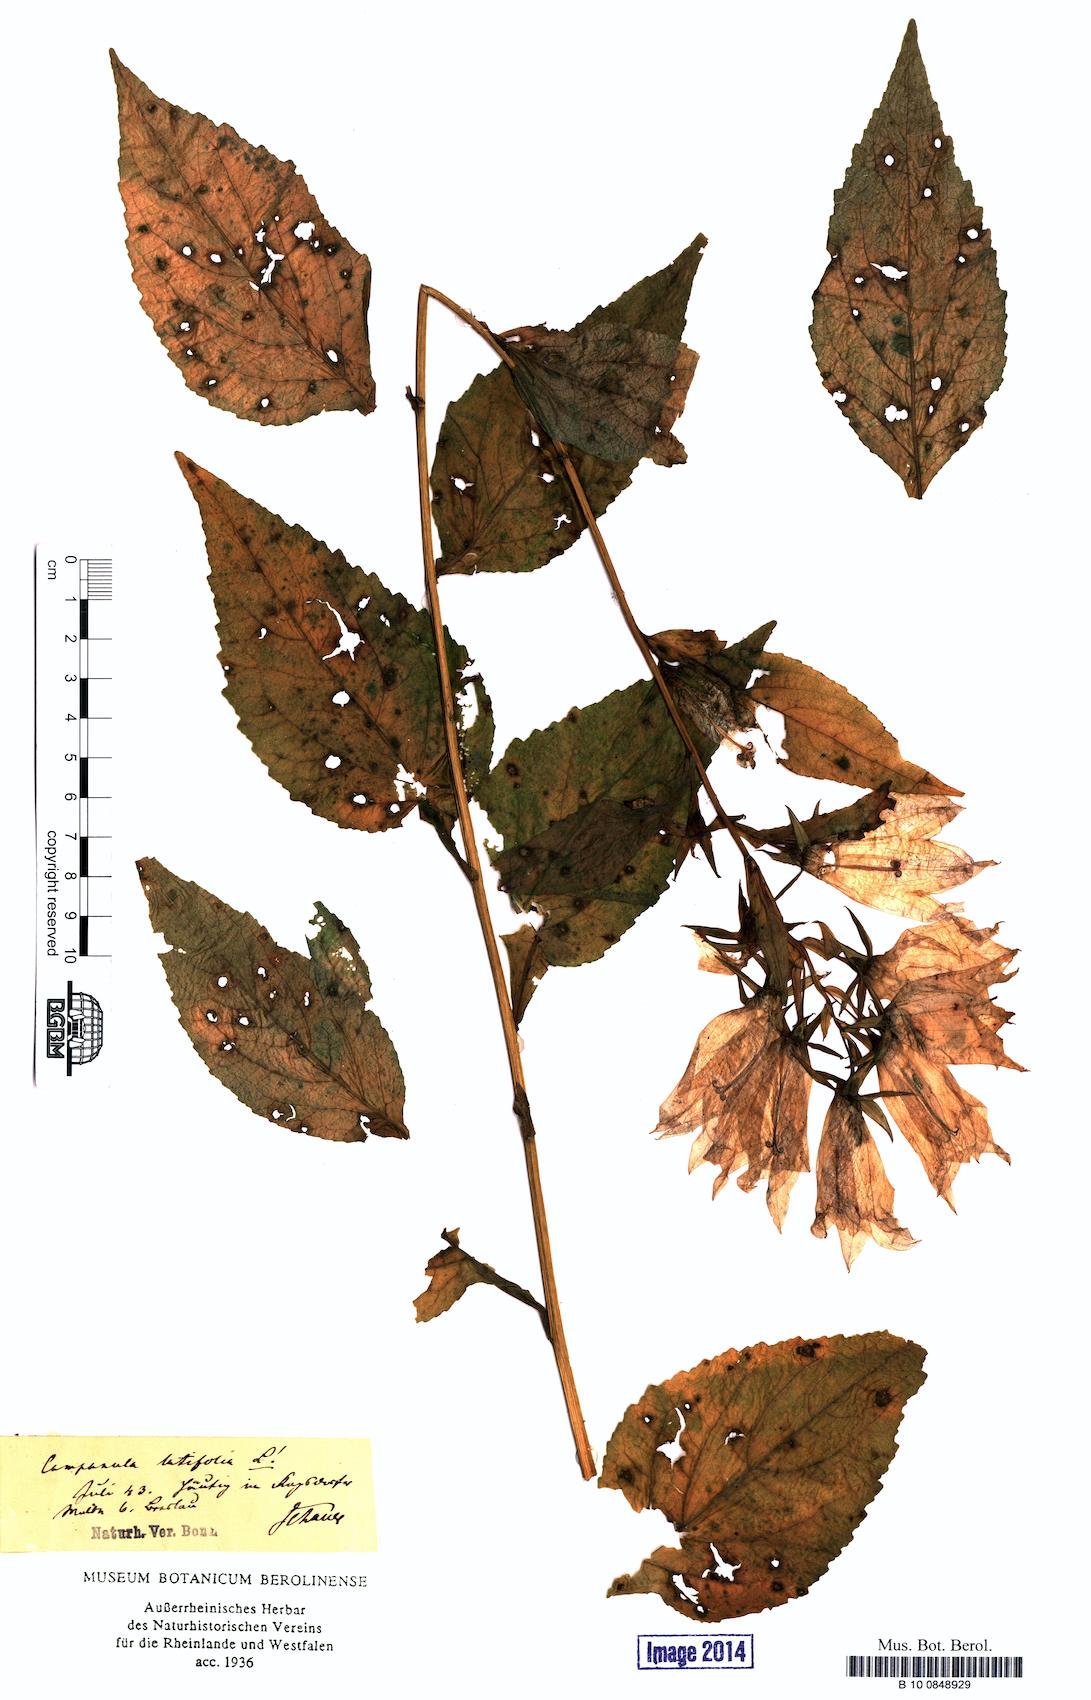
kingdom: Plantae
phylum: Tracheophyta
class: Magnoliopsida
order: Asterales
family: Campanulaceae
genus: Campanula
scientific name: Campanula latifolia
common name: Giant bellflower
